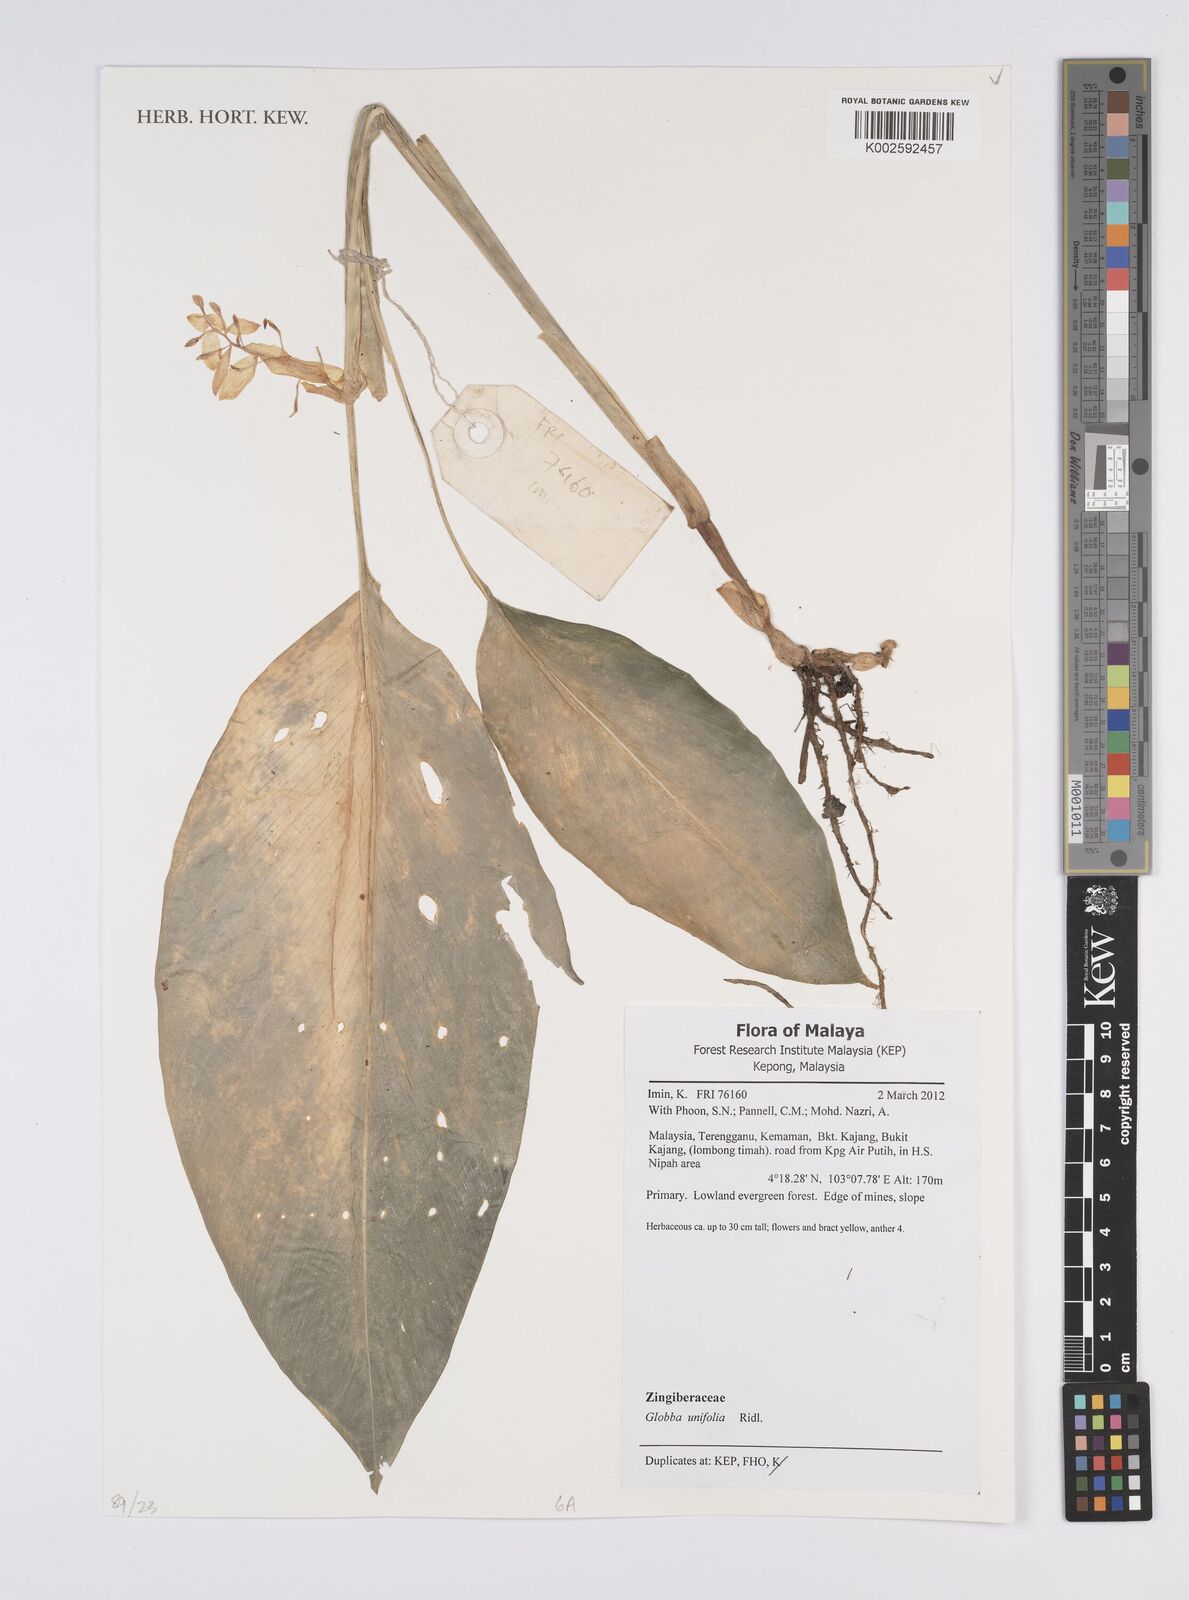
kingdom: Plantae
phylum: Tracheophyta
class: Liliopsida
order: Zingiberales
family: Zingiberaceae
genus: Globba
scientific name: Globba unifolia
